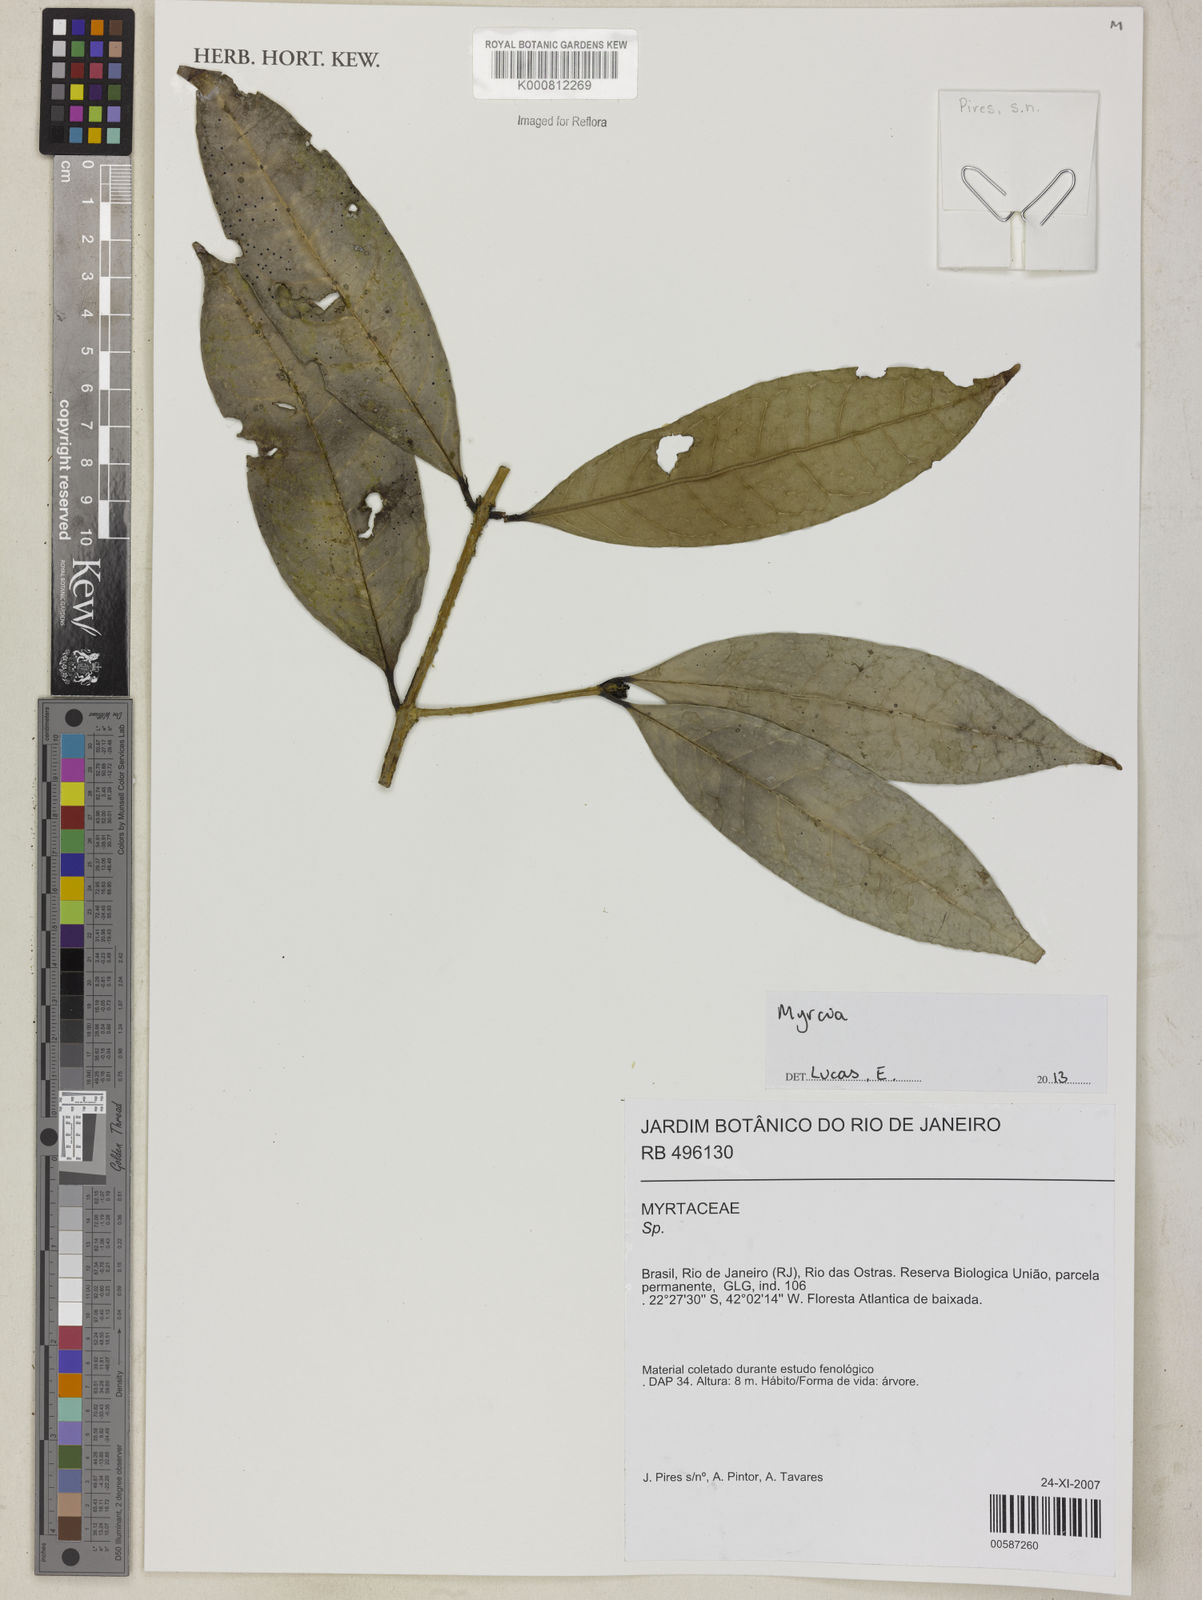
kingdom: Plantae
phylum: Tracheophyta
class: Magnoliopsida
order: Myrtales
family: Myrtaceae
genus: Myrcia
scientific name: Myrcia
